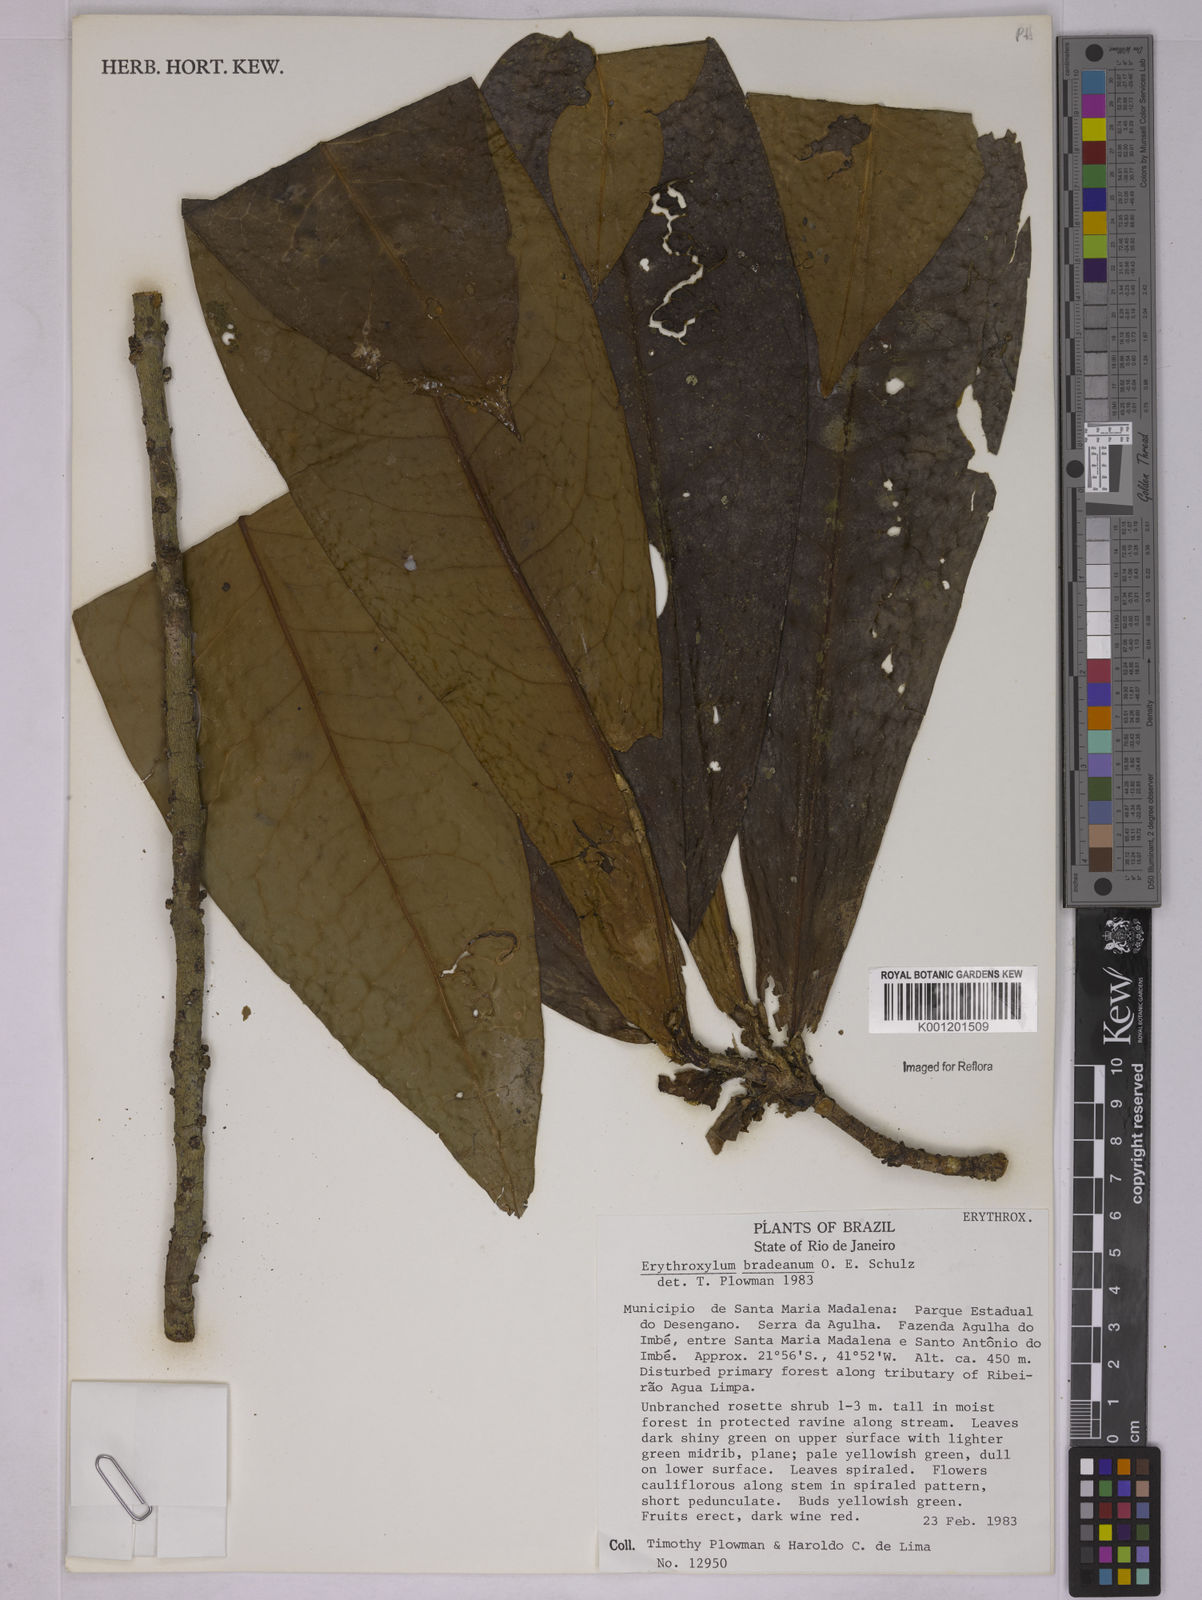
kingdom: Plantae
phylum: Tracheophyta
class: Magnoliopsida
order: Malpighiales
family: Erythroxylaceae
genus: Erythroxylum
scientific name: Erythroxylum bradeanum
